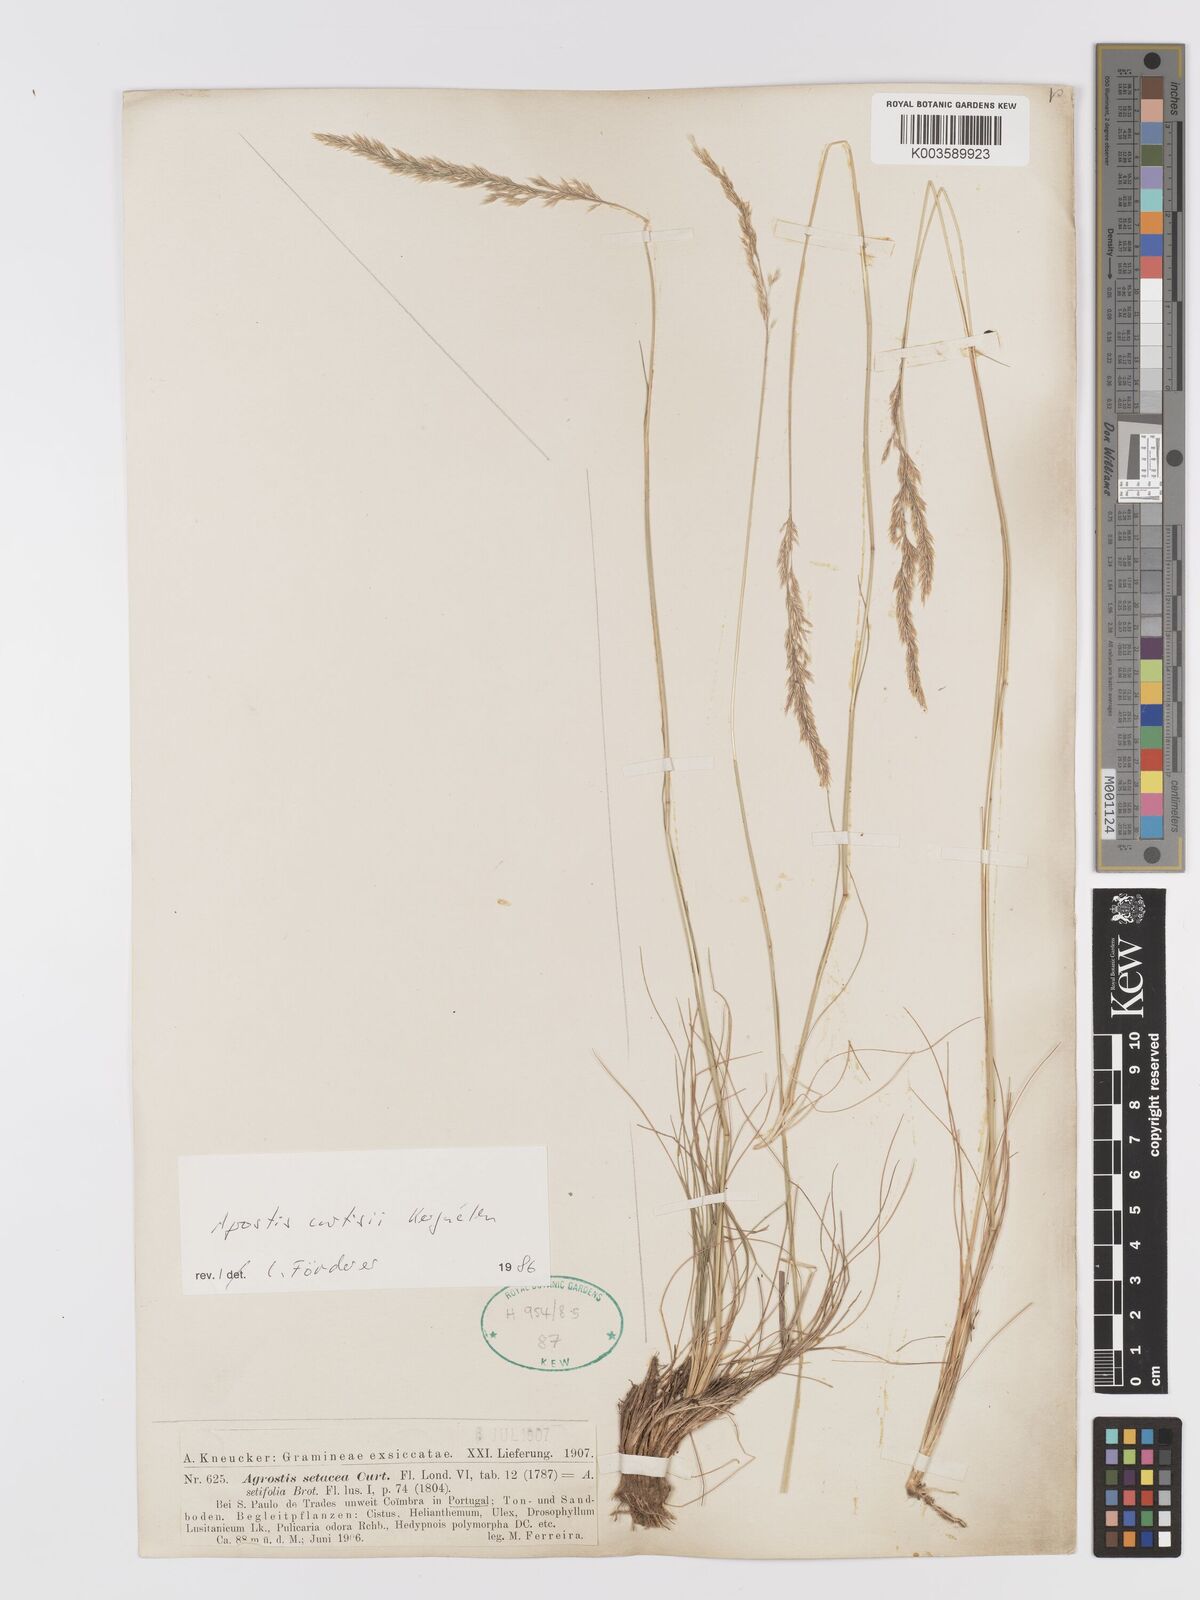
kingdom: Plantae
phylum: Tracheophyta
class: Liliopsida
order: Poales
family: Poaceae
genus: Alpagrostis
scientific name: Alpagrostis setacea
